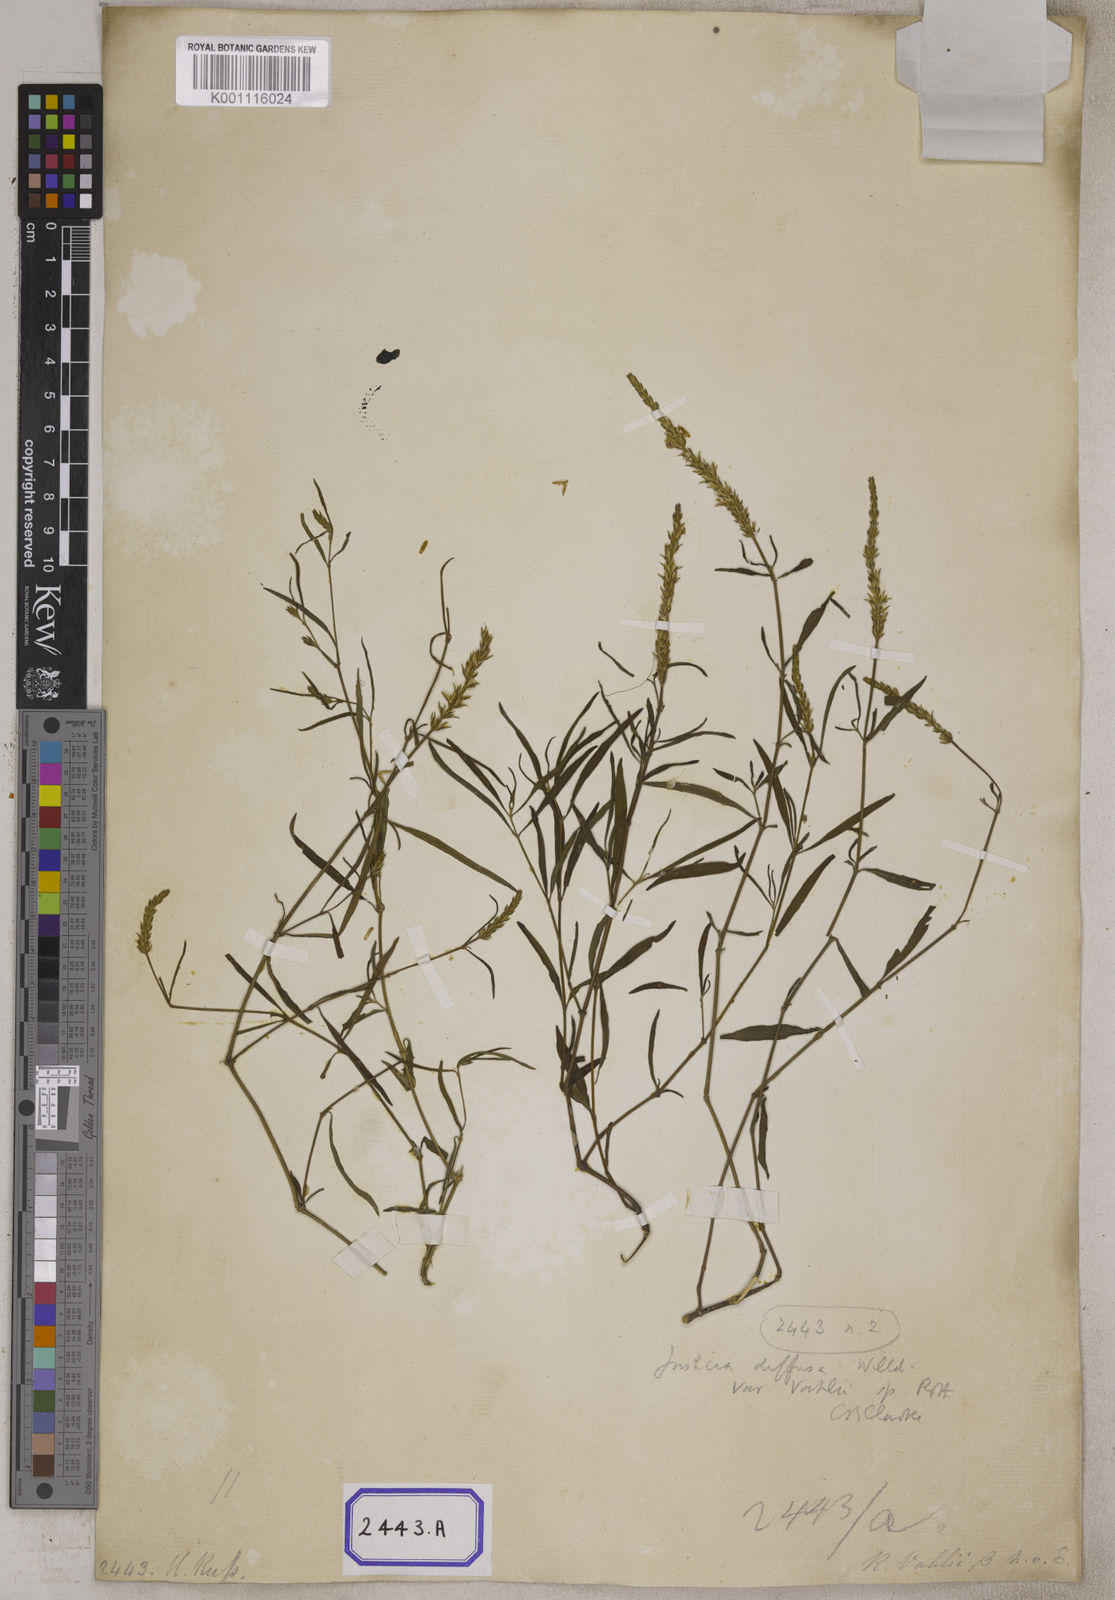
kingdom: Plantae
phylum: Tracheophyta
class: Magnoliopsida
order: Lamiales
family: Acanthaceae
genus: Rostellularia
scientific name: Rostellularia diffusa
